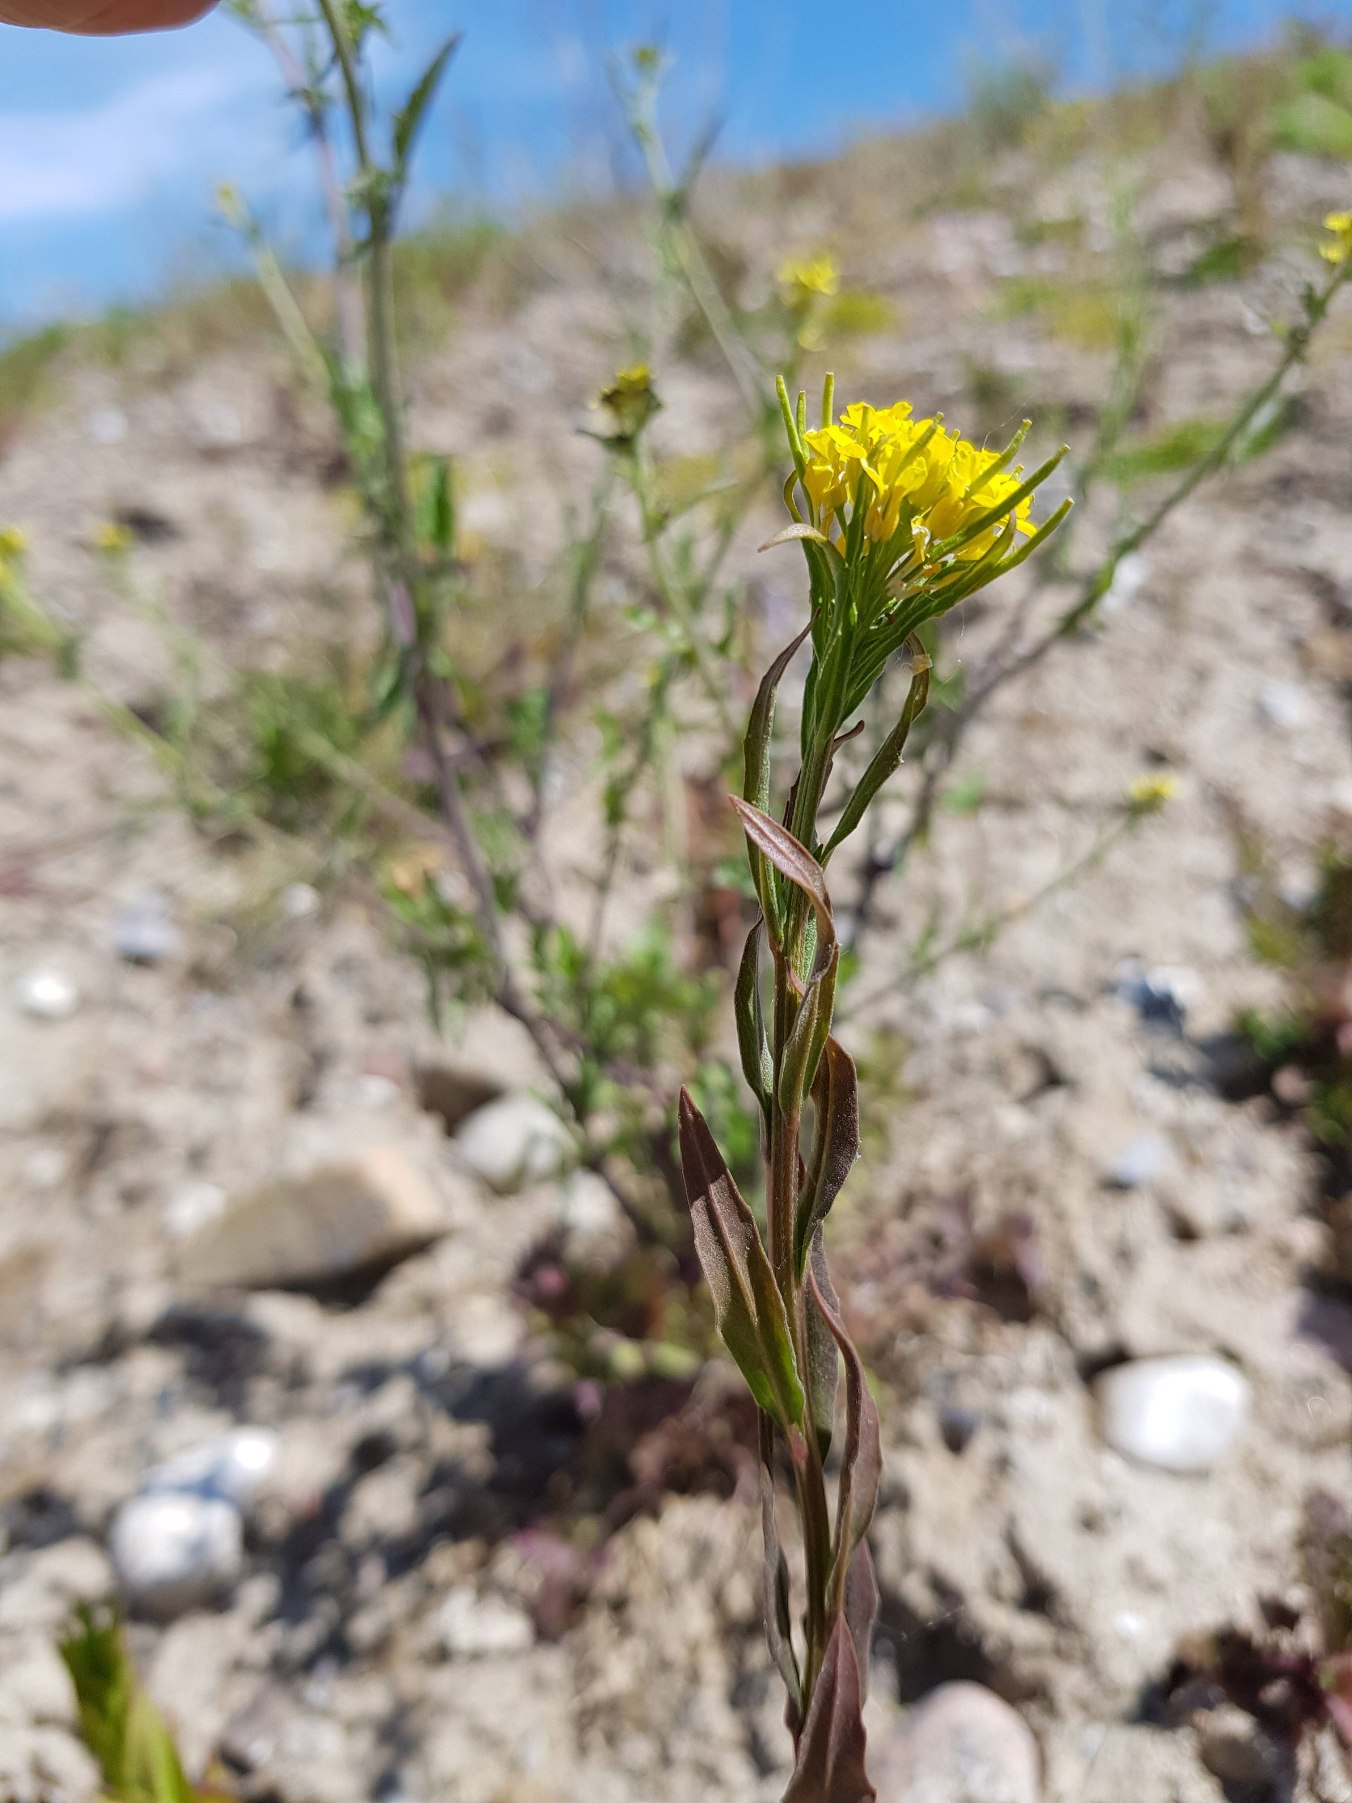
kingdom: Plantae
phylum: Tracheophyta
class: Magnoliopsida
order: Brassicales
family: Brassicaceae
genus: Erysimum
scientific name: Erysimum strictum
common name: Rank hjørneklap
